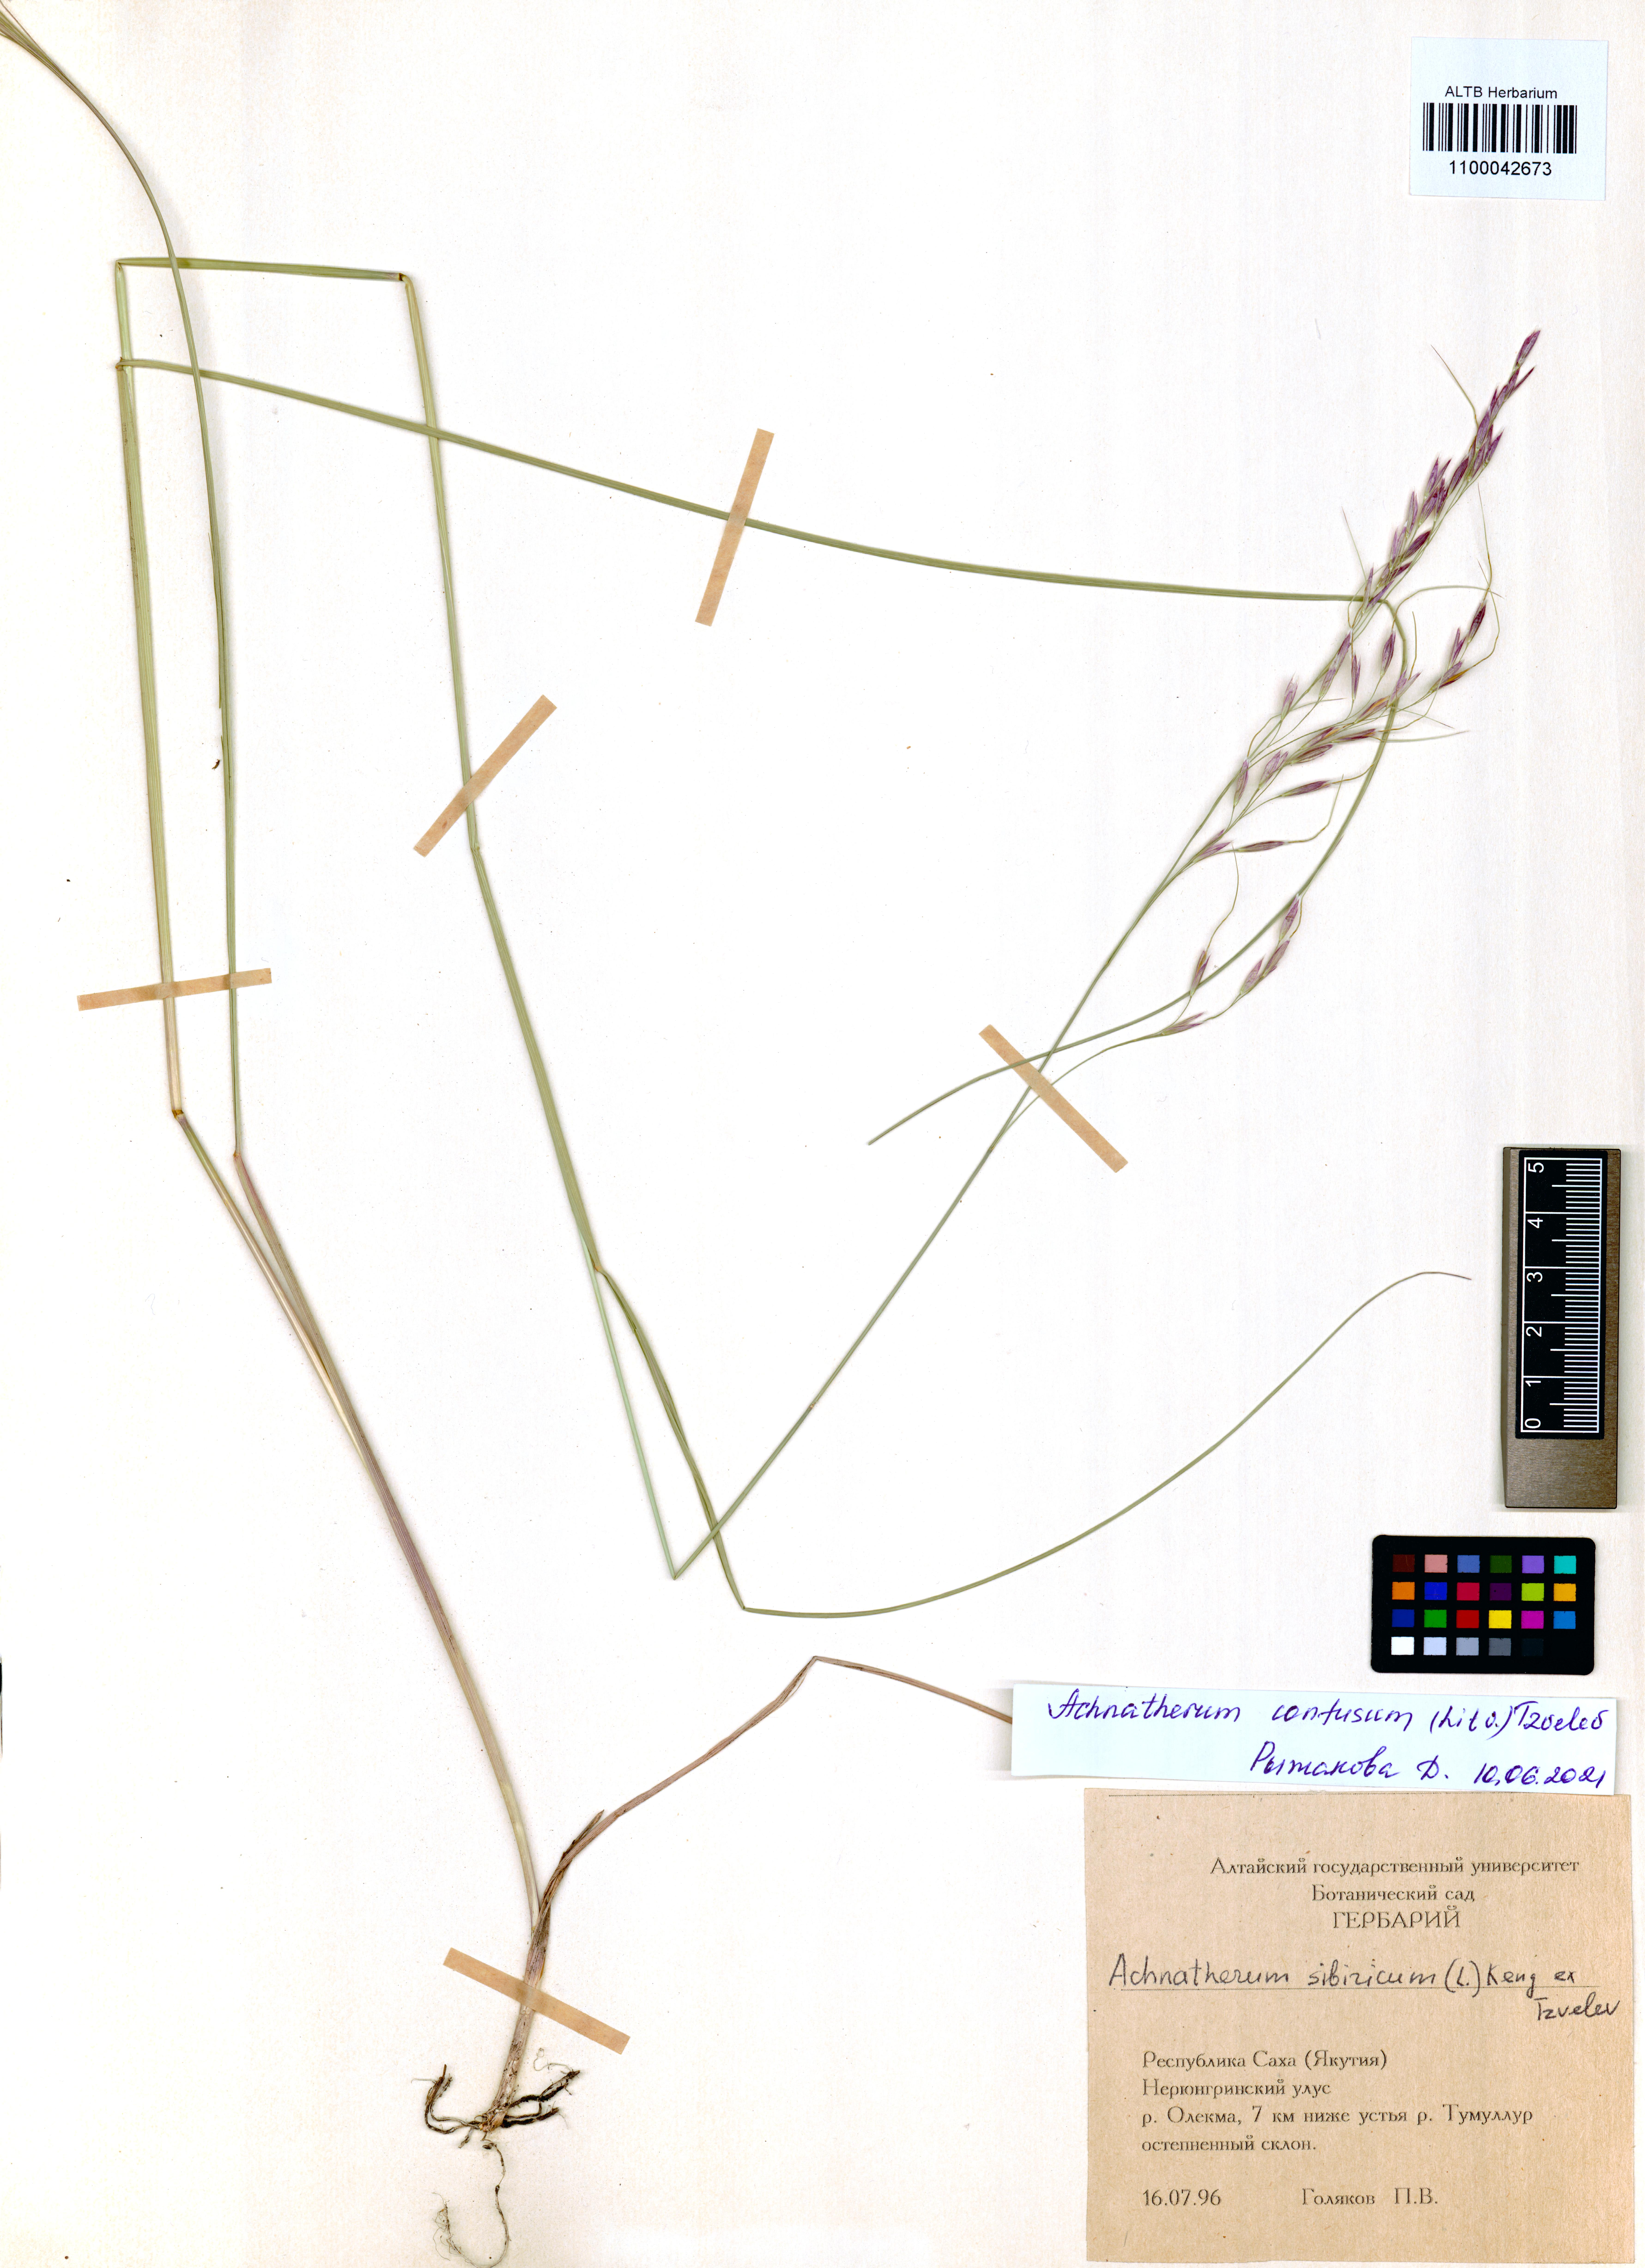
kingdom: Plantae
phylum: Tracheophyta
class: Liliopsida
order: Poales
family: Poaceae
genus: Achnatherum
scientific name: Achnatherum confusum
